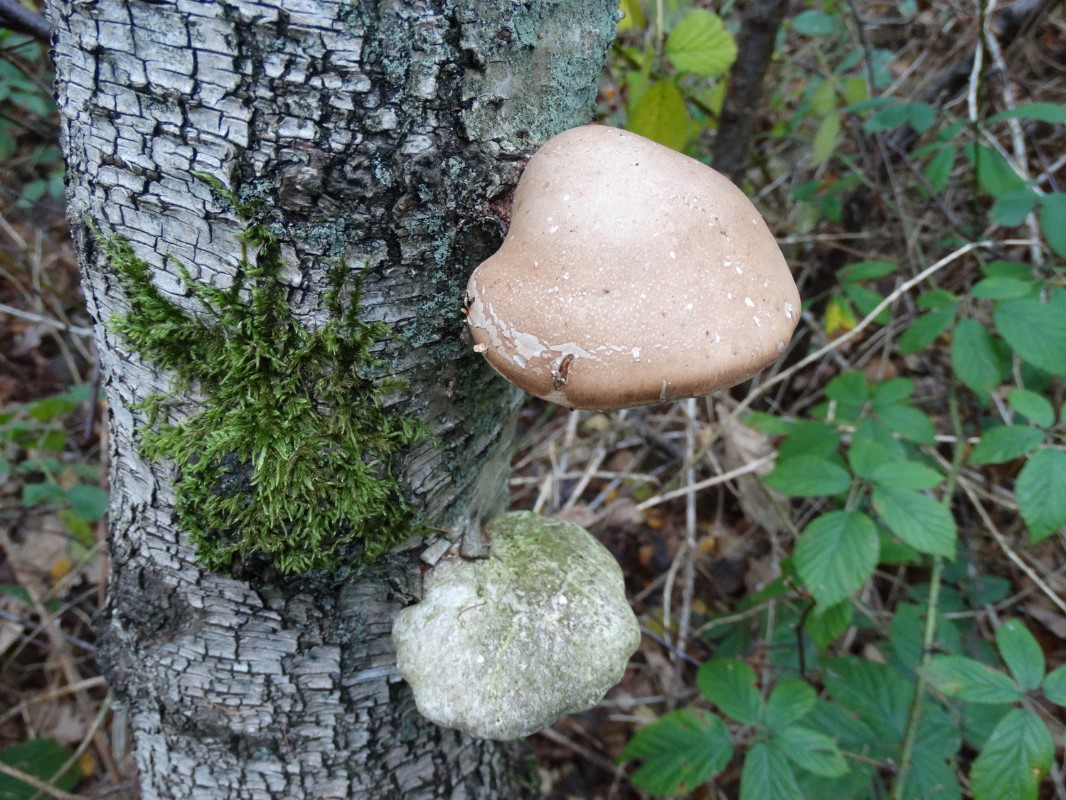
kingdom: Fungi
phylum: Basidiomycota
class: Agaricomycetes
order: Polyporales
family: Fomitopsidaceae
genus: Fomitopsis
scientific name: Fomitopsis betulina
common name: birkeporesvamp
